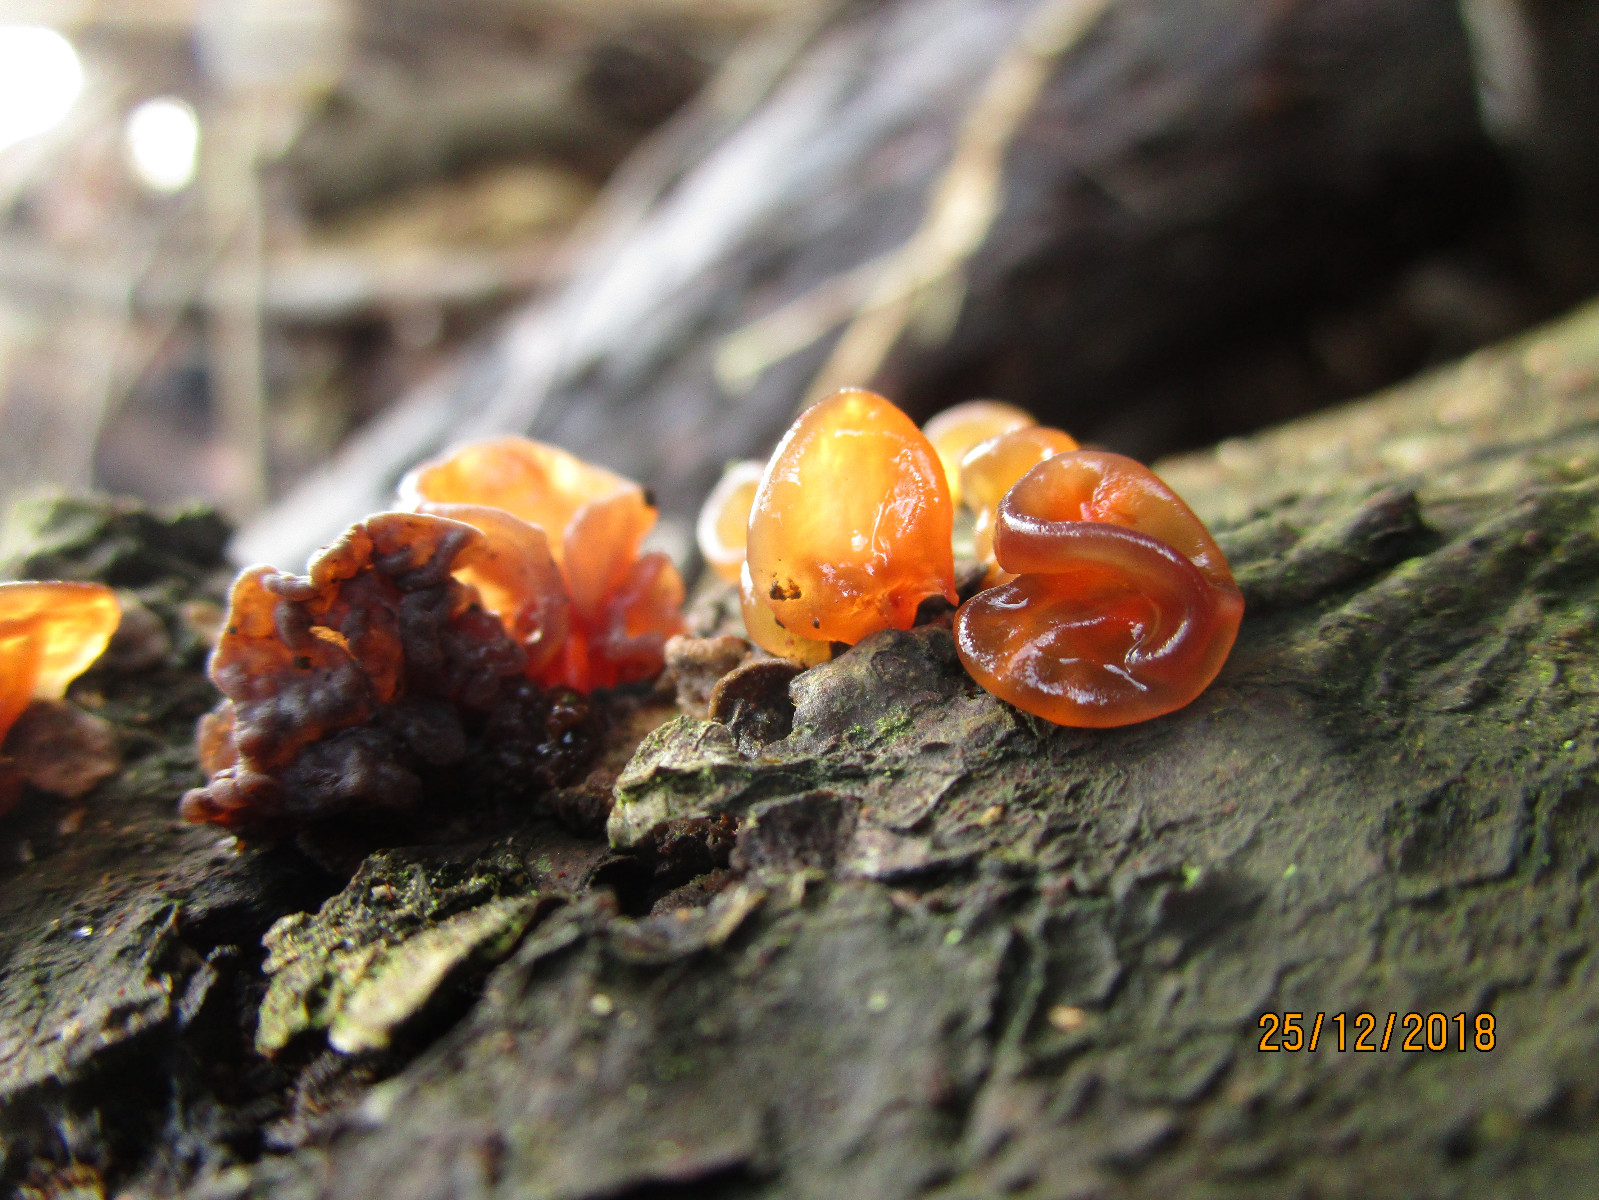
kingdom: Fungi
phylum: Basidiomycota
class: Agaricomycetes
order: Auriculariales
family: Auriculariaceae
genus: Exidia
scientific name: Exidia recisa
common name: pile-bævretop
